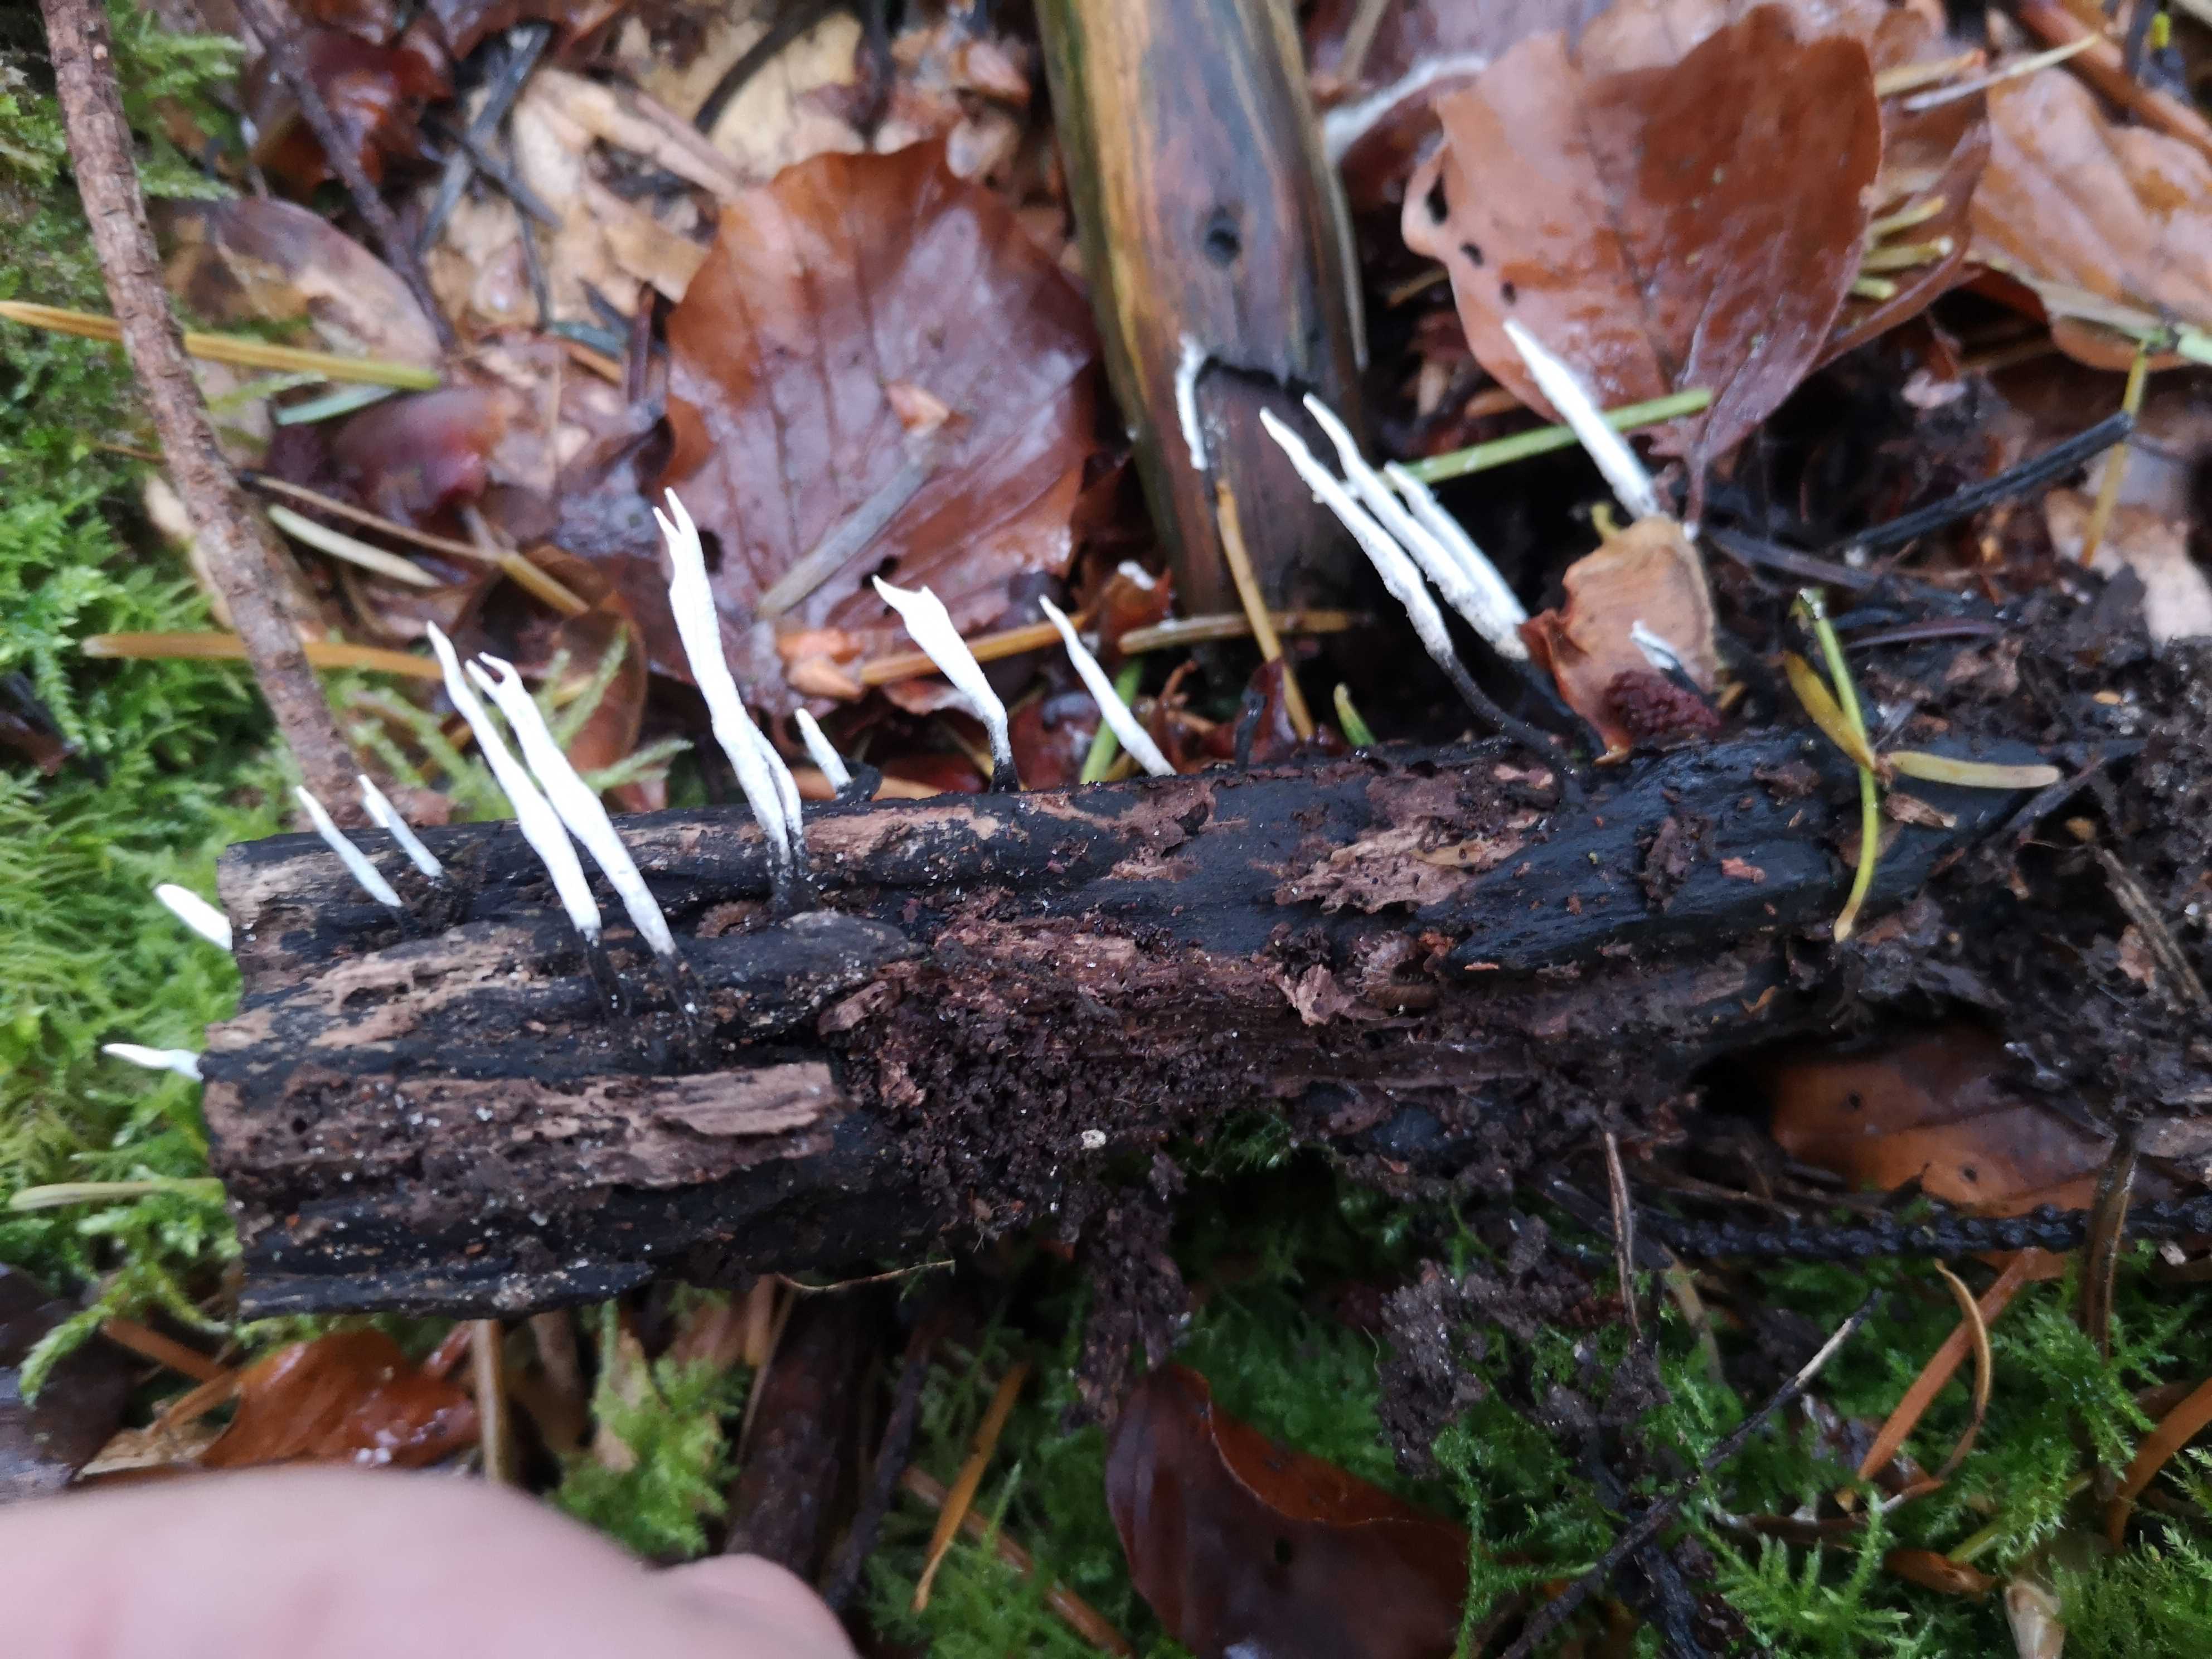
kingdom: Fungi
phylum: Ascomycota
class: Sordariomycetes
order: Xylariales
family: Xylariaceae
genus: Xylaria
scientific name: Xylaria hypoxylon
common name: grenet stødsvamp
